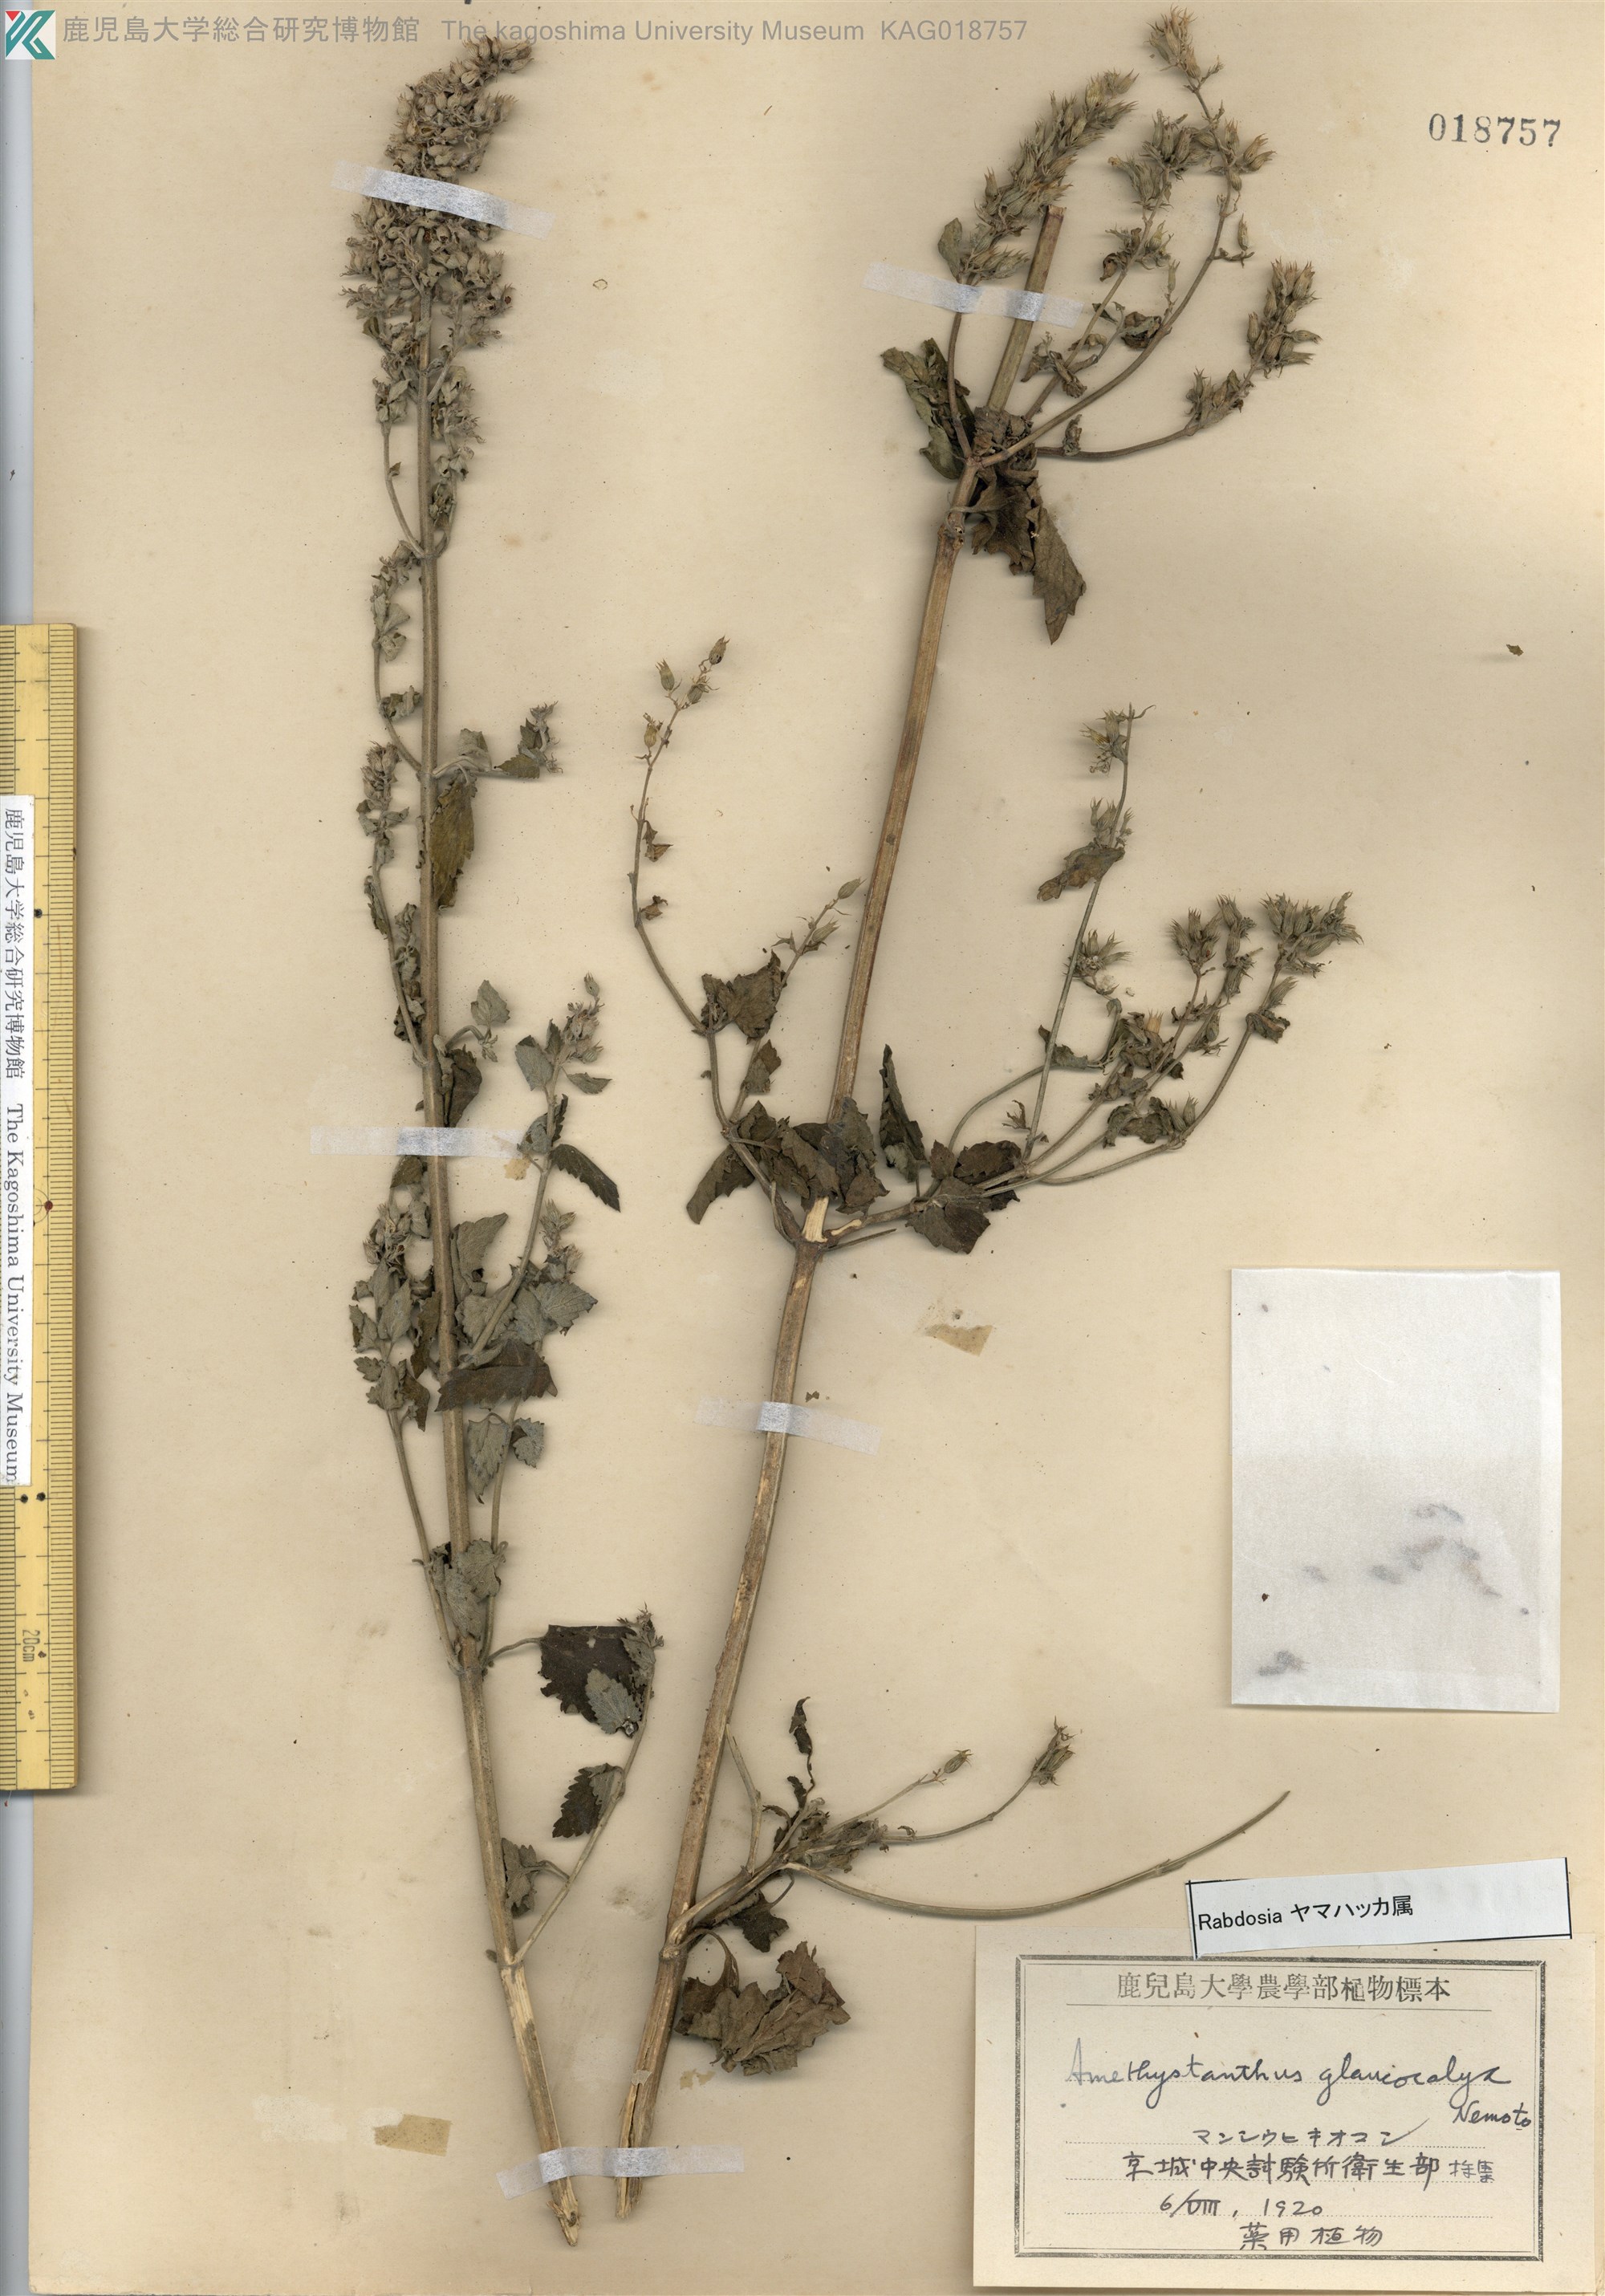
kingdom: Plantae
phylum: Tracheophyta
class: Magnoliopsida
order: Lamiales
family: Lamiaceae
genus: Isodon
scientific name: Isodon japonicus
